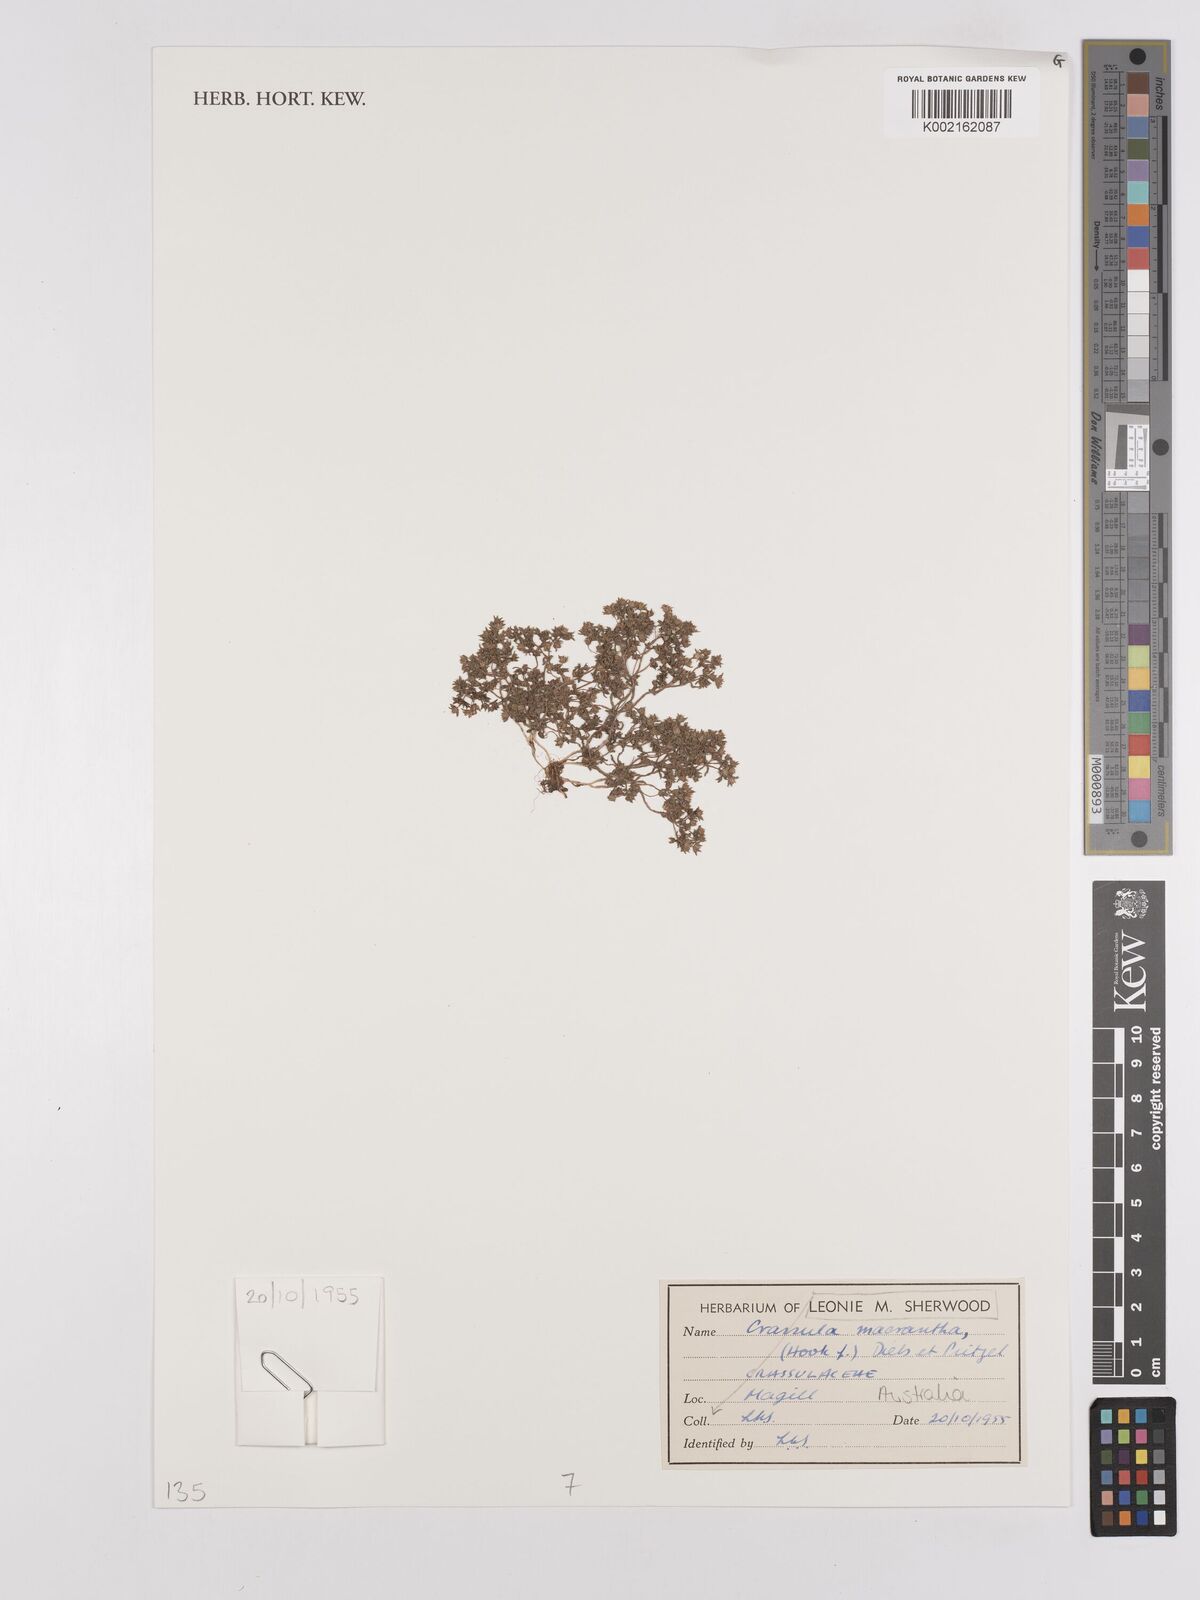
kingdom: Plantae
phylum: Tracheophyta
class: Magnoliopsida
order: Saxifragales
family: Crassulaceae
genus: Crassula
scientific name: Crassula
